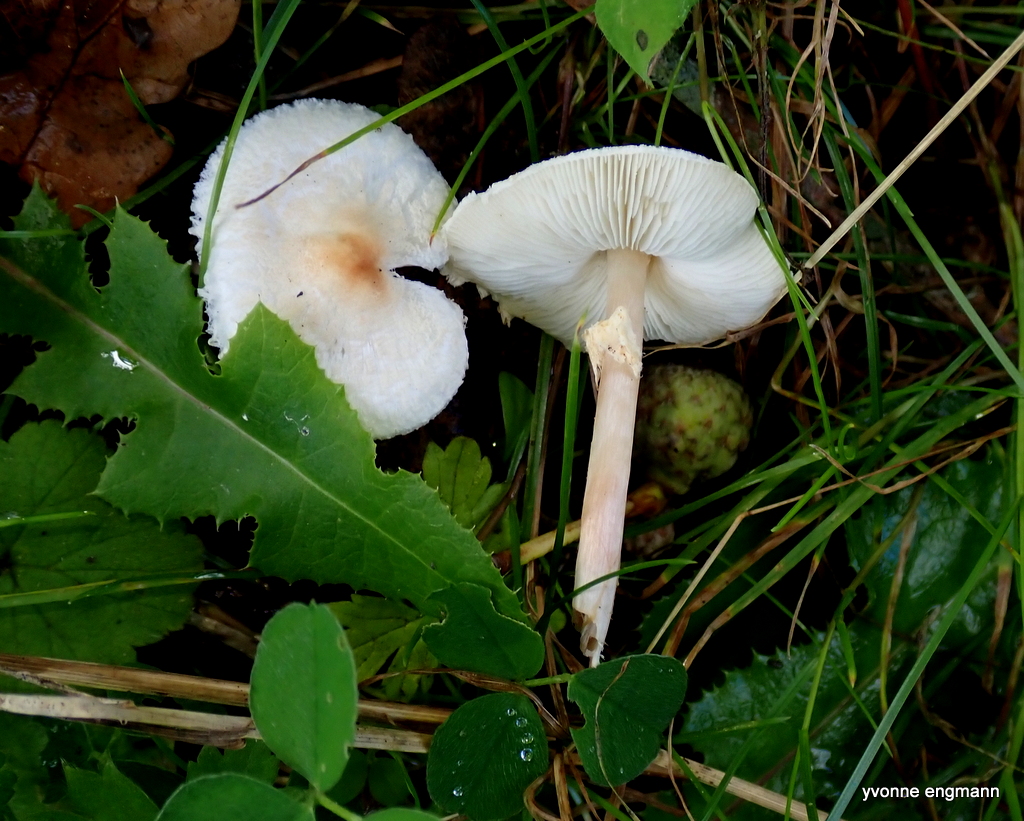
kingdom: Fungi
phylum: Basidiomycota
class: Agaricomycetes
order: Agaricales
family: Agaricaceae
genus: Lepiota
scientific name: Lepiota cristata
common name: stinkende parasolhat
